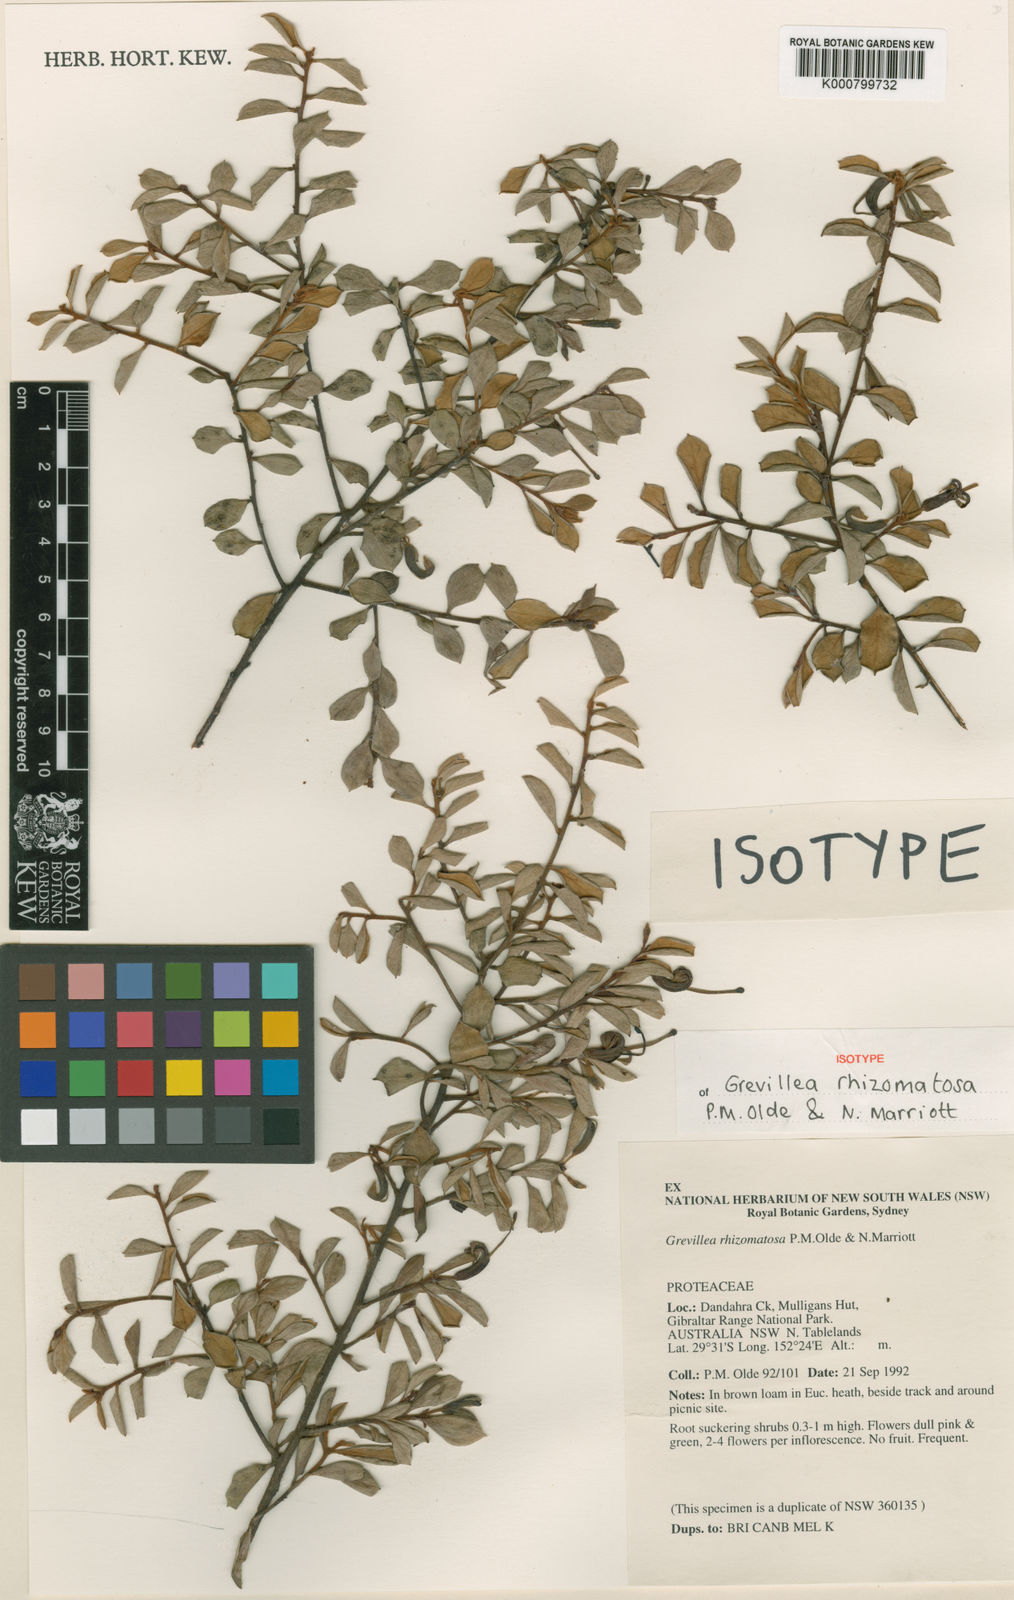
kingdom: Plantae
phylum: Tracheophyta
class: Magnoliopsida
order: Proteales
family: Proteaceae
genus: Grevillea
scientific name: Grevillea rhizomatosa
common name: Gibraltar grevillea
